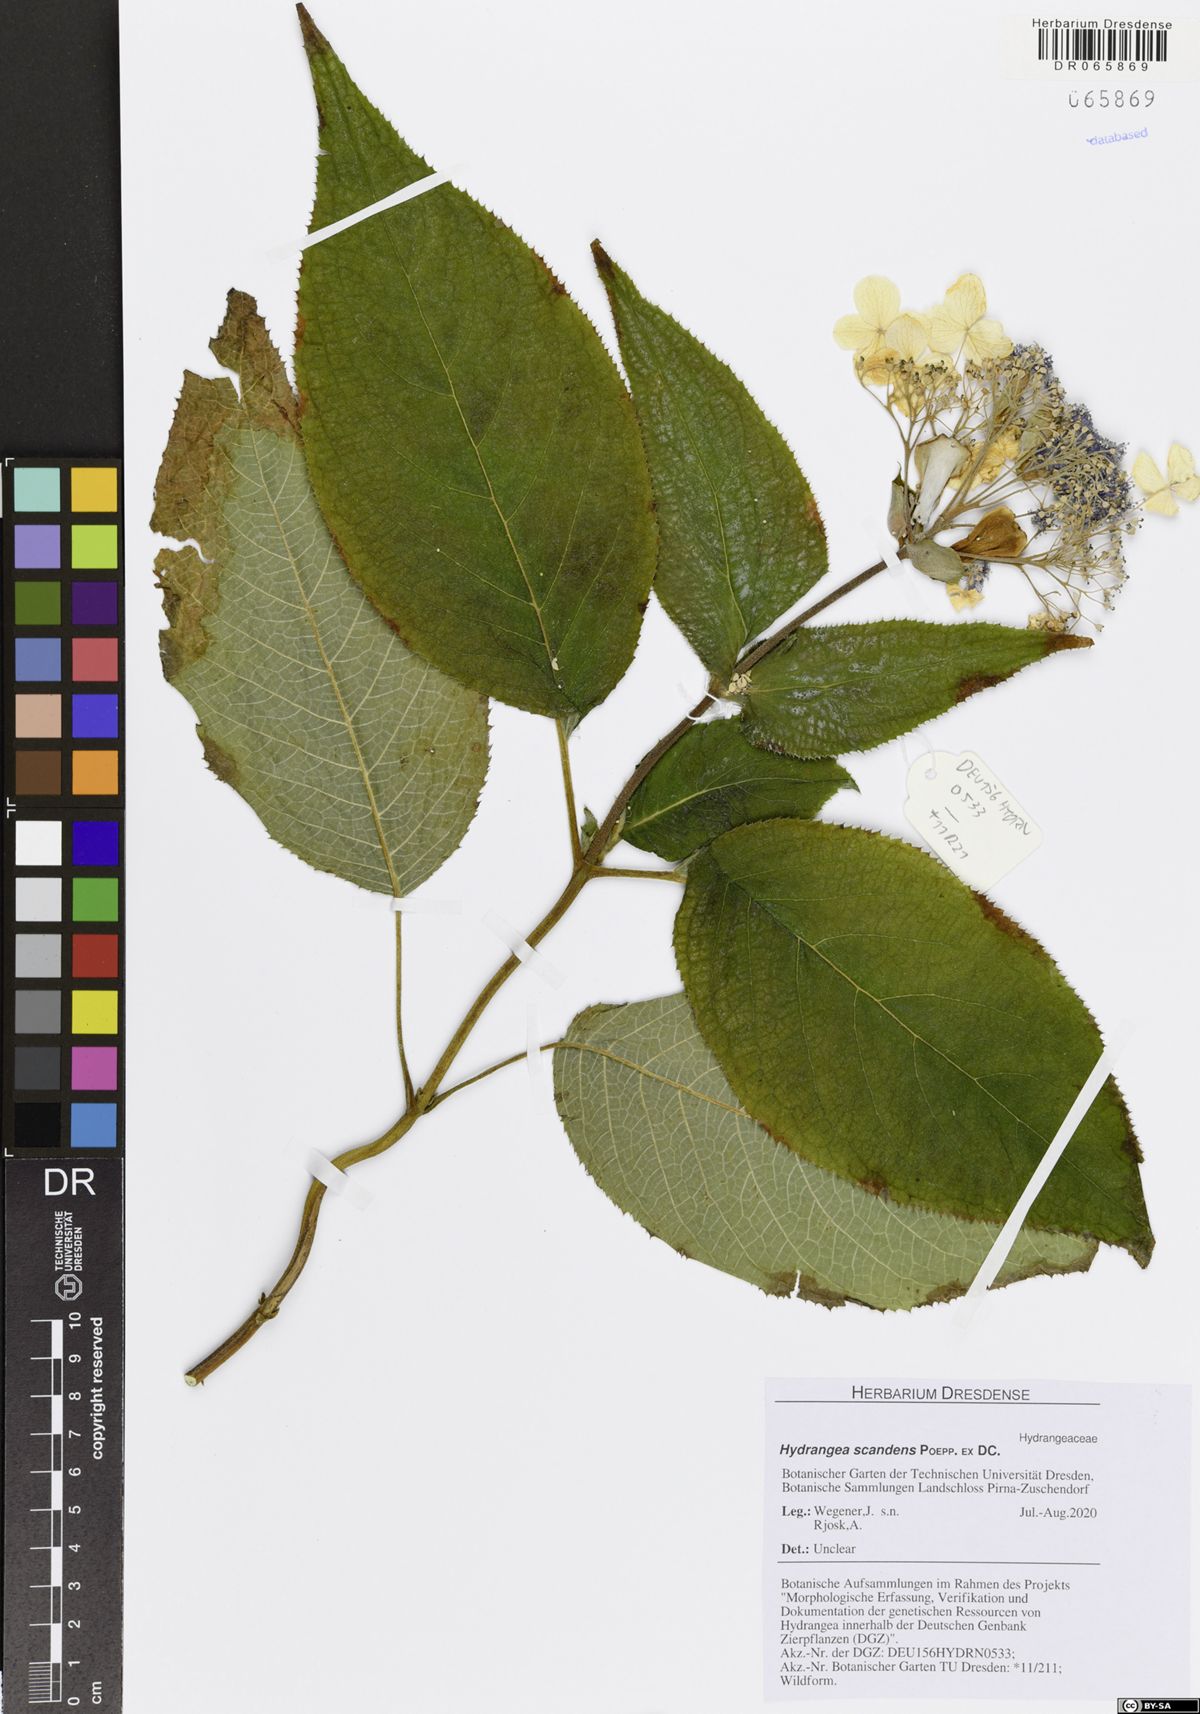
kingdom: Plantae
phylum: Tracheophyta
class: Magnoliopsida
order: Cornales
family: Hydrangeaceae
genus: Hydrangea
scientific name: Hydrangea serratifolia
